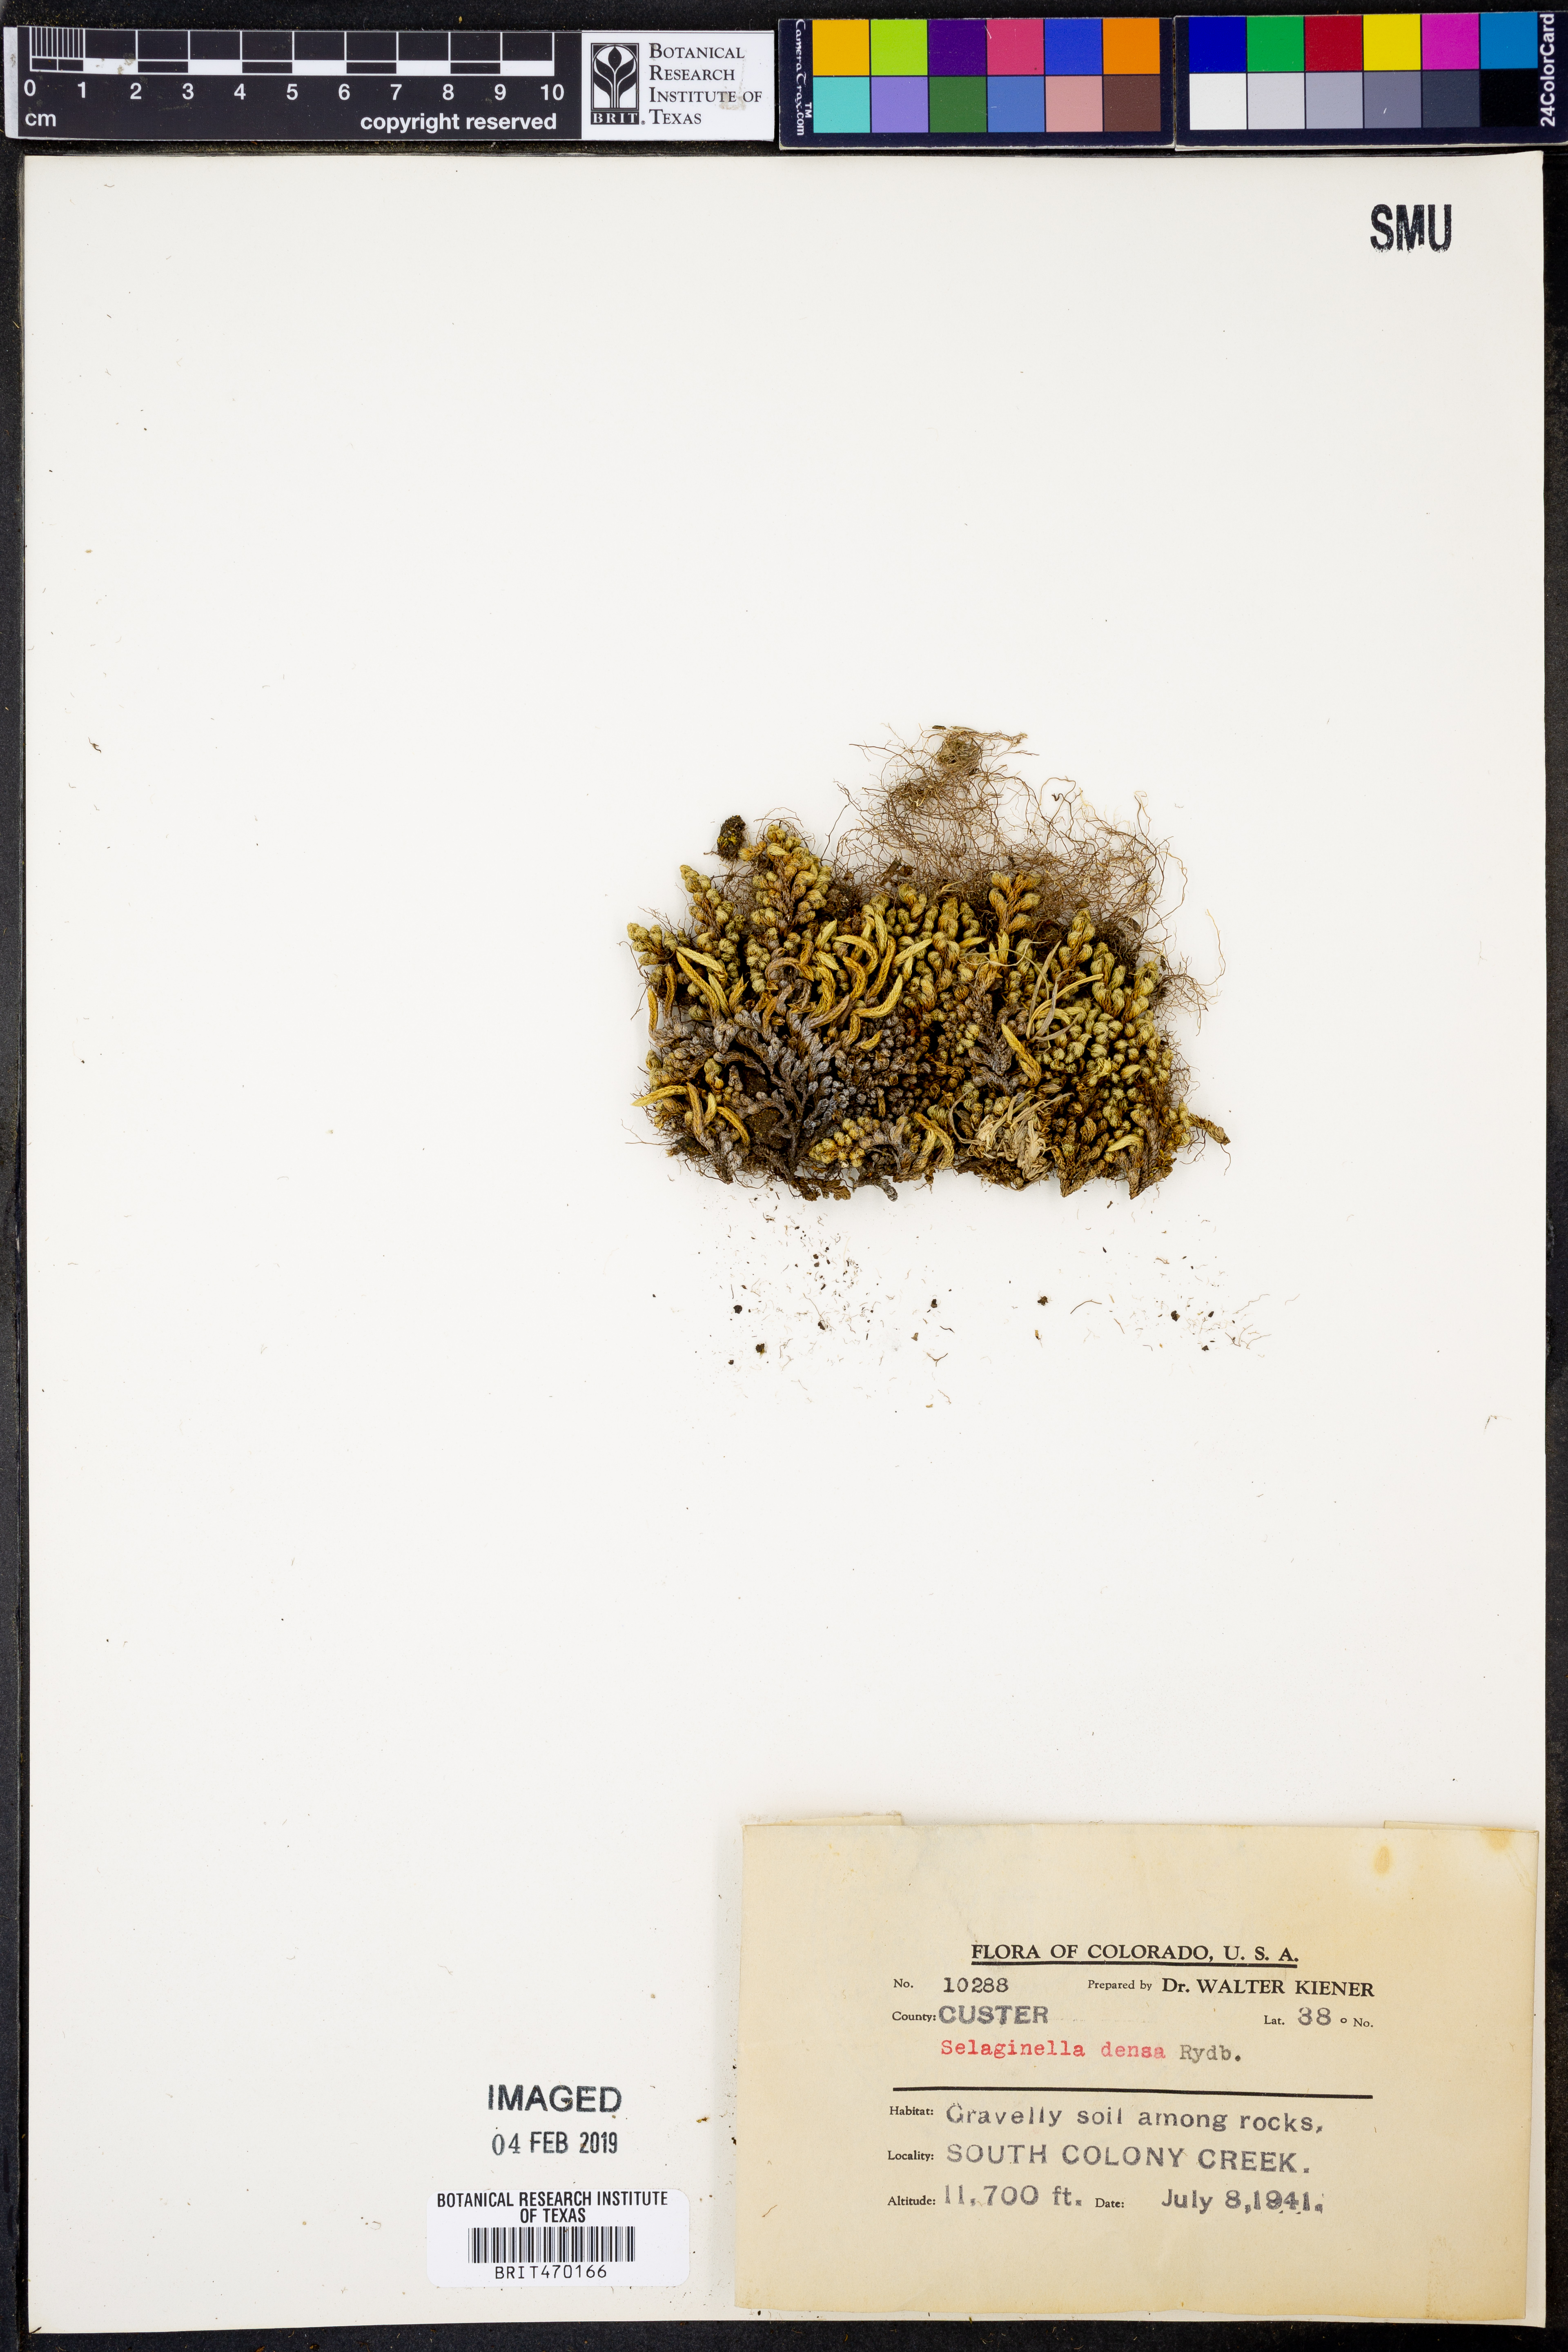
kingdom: Plantae
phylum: Tracheophyta
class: Lycopodiopsida
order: Selaginellales
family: Selaginellaceae
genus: Selaginella
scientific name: Selaginella densa
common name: Mountain spike-moss
